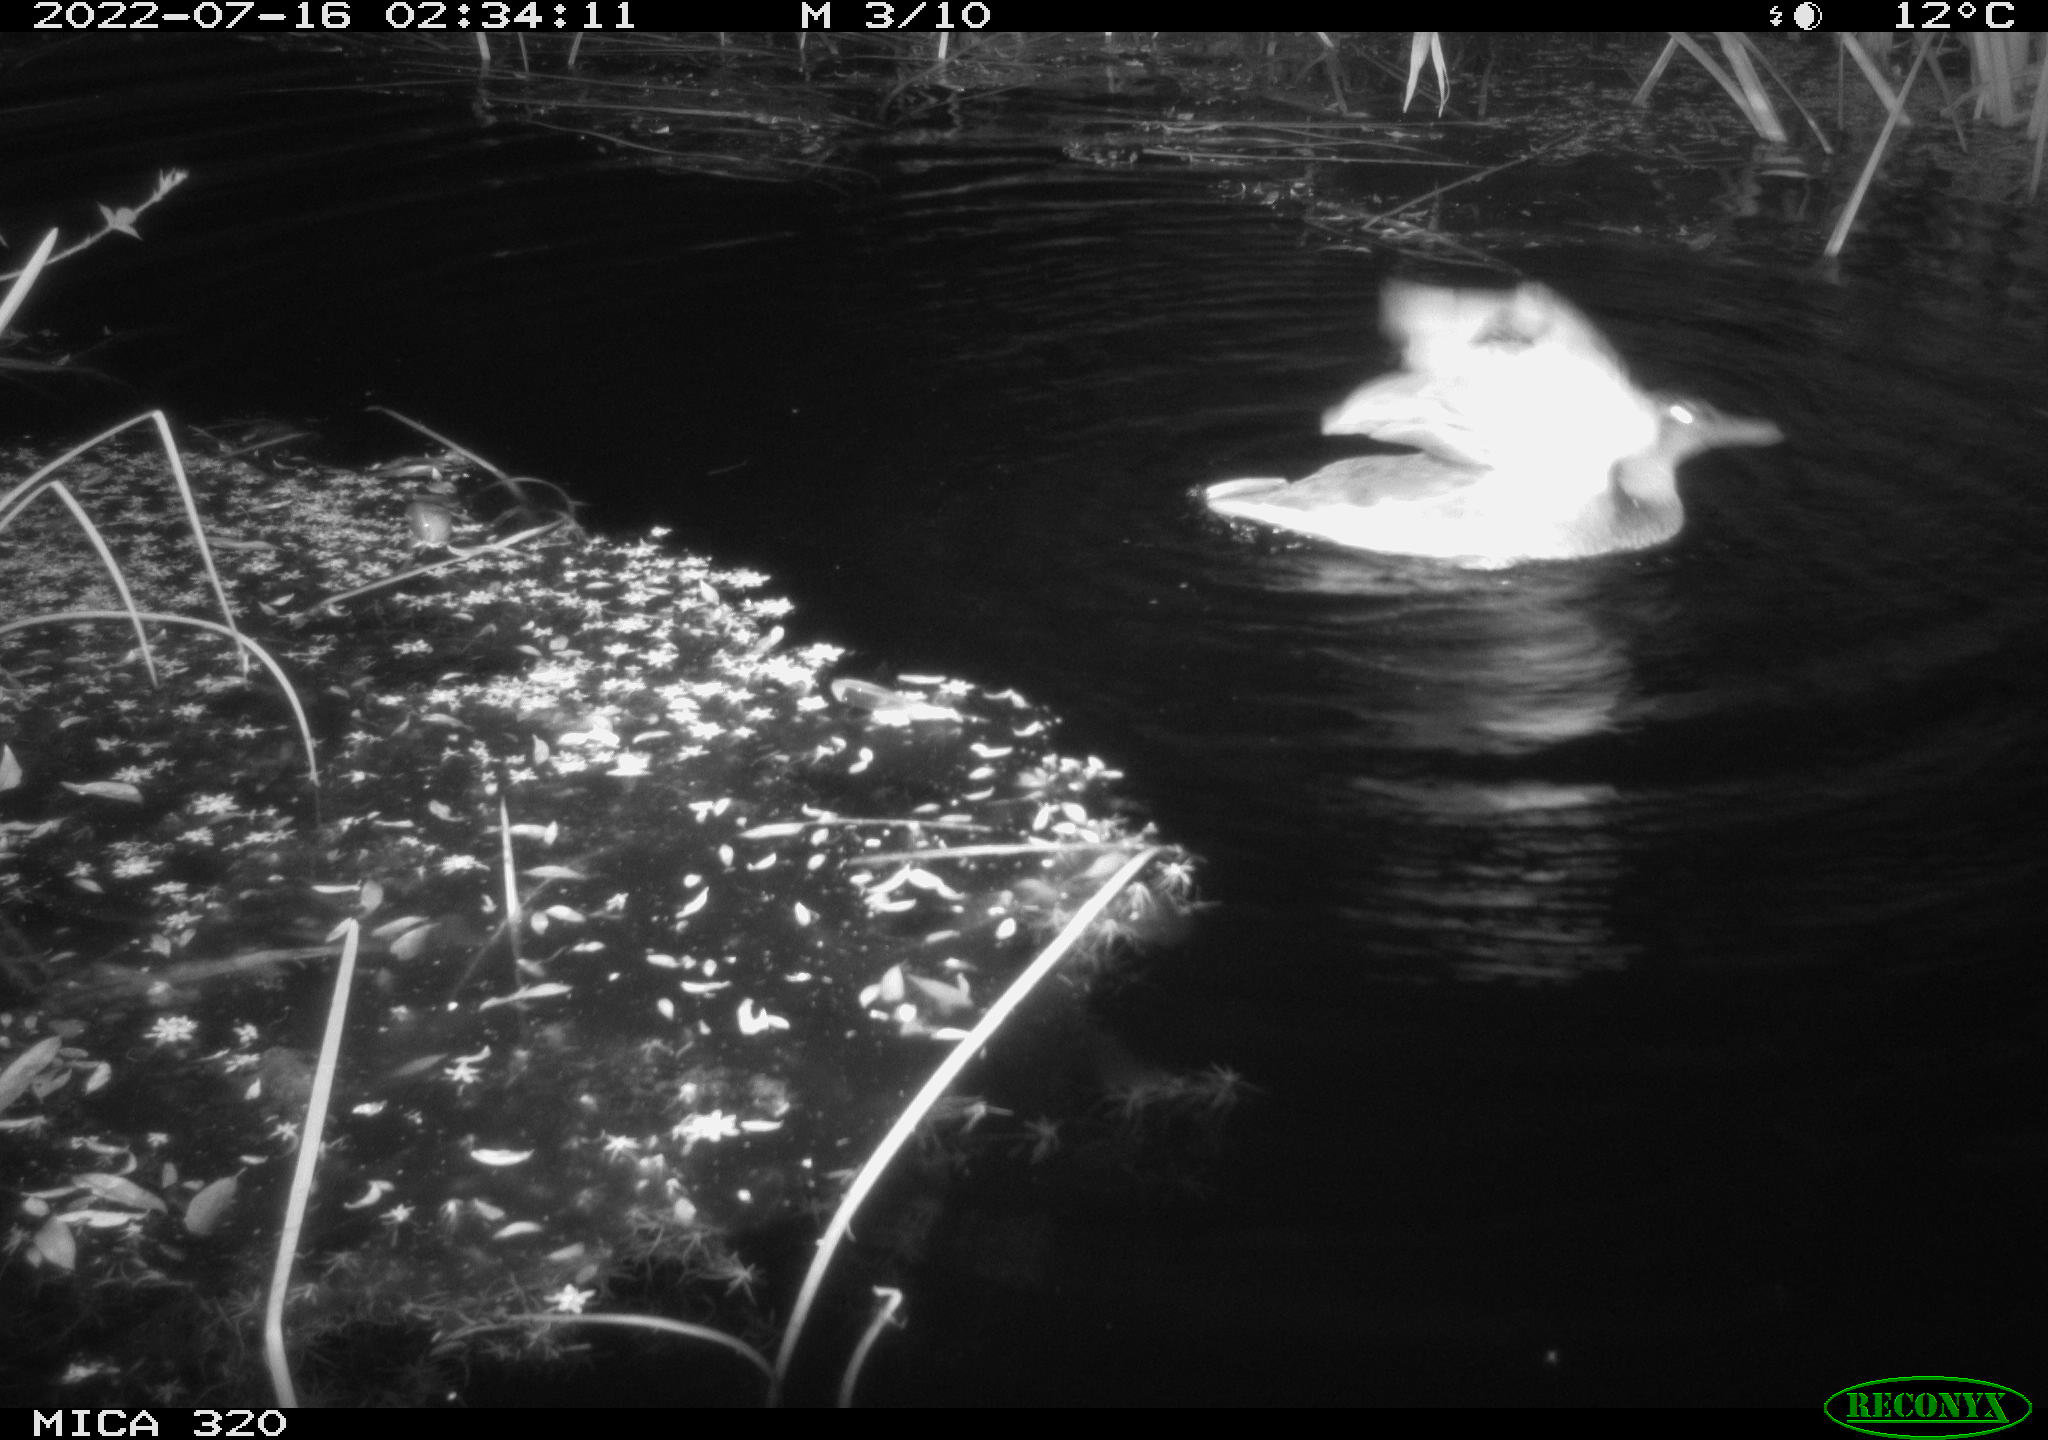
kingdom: Animalia
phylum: Chordata
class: Aves
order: Anseriformes
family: Anatidae
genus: Anas
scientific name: Anas platyrhynchos
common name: Mallard
